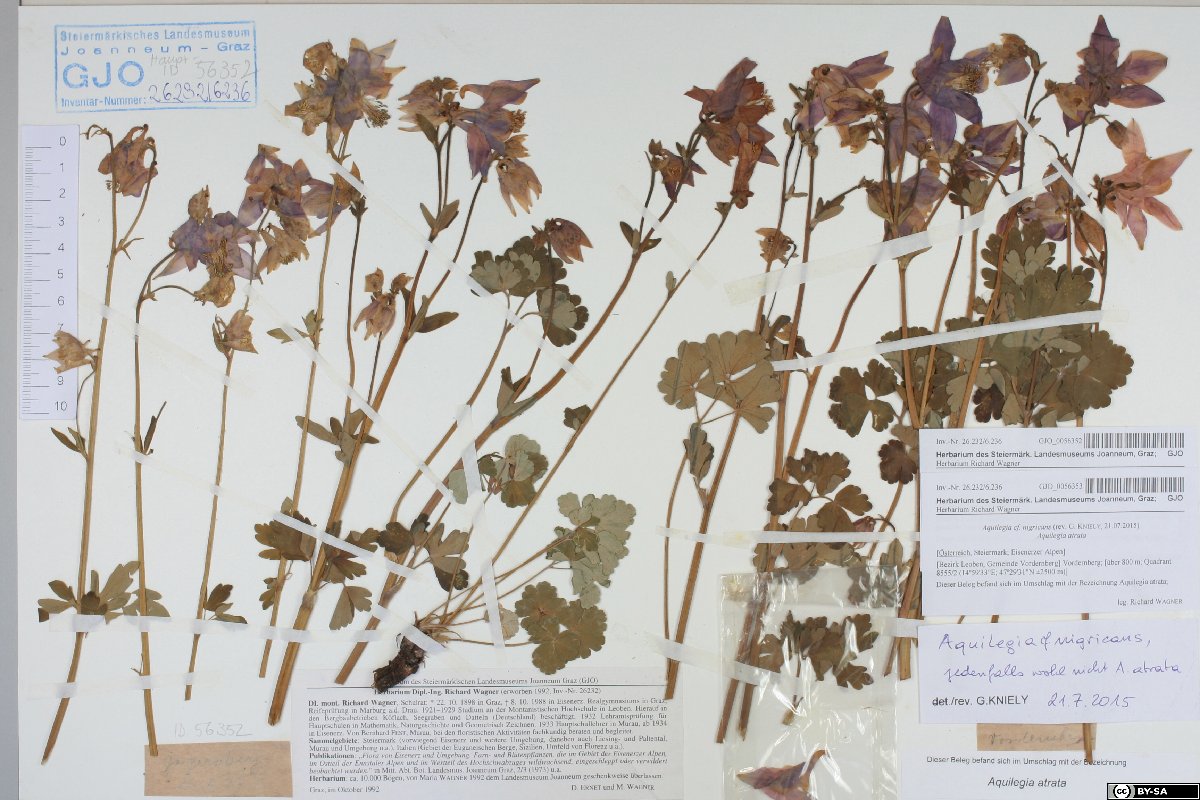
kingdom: Plantae
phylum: Tracheophyta
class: Magnoliopsida
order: Ranunculales
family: Ranunculaceae
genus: Aquilegia
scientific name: Aquilegia nigricans
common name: Bulgarian columbine
